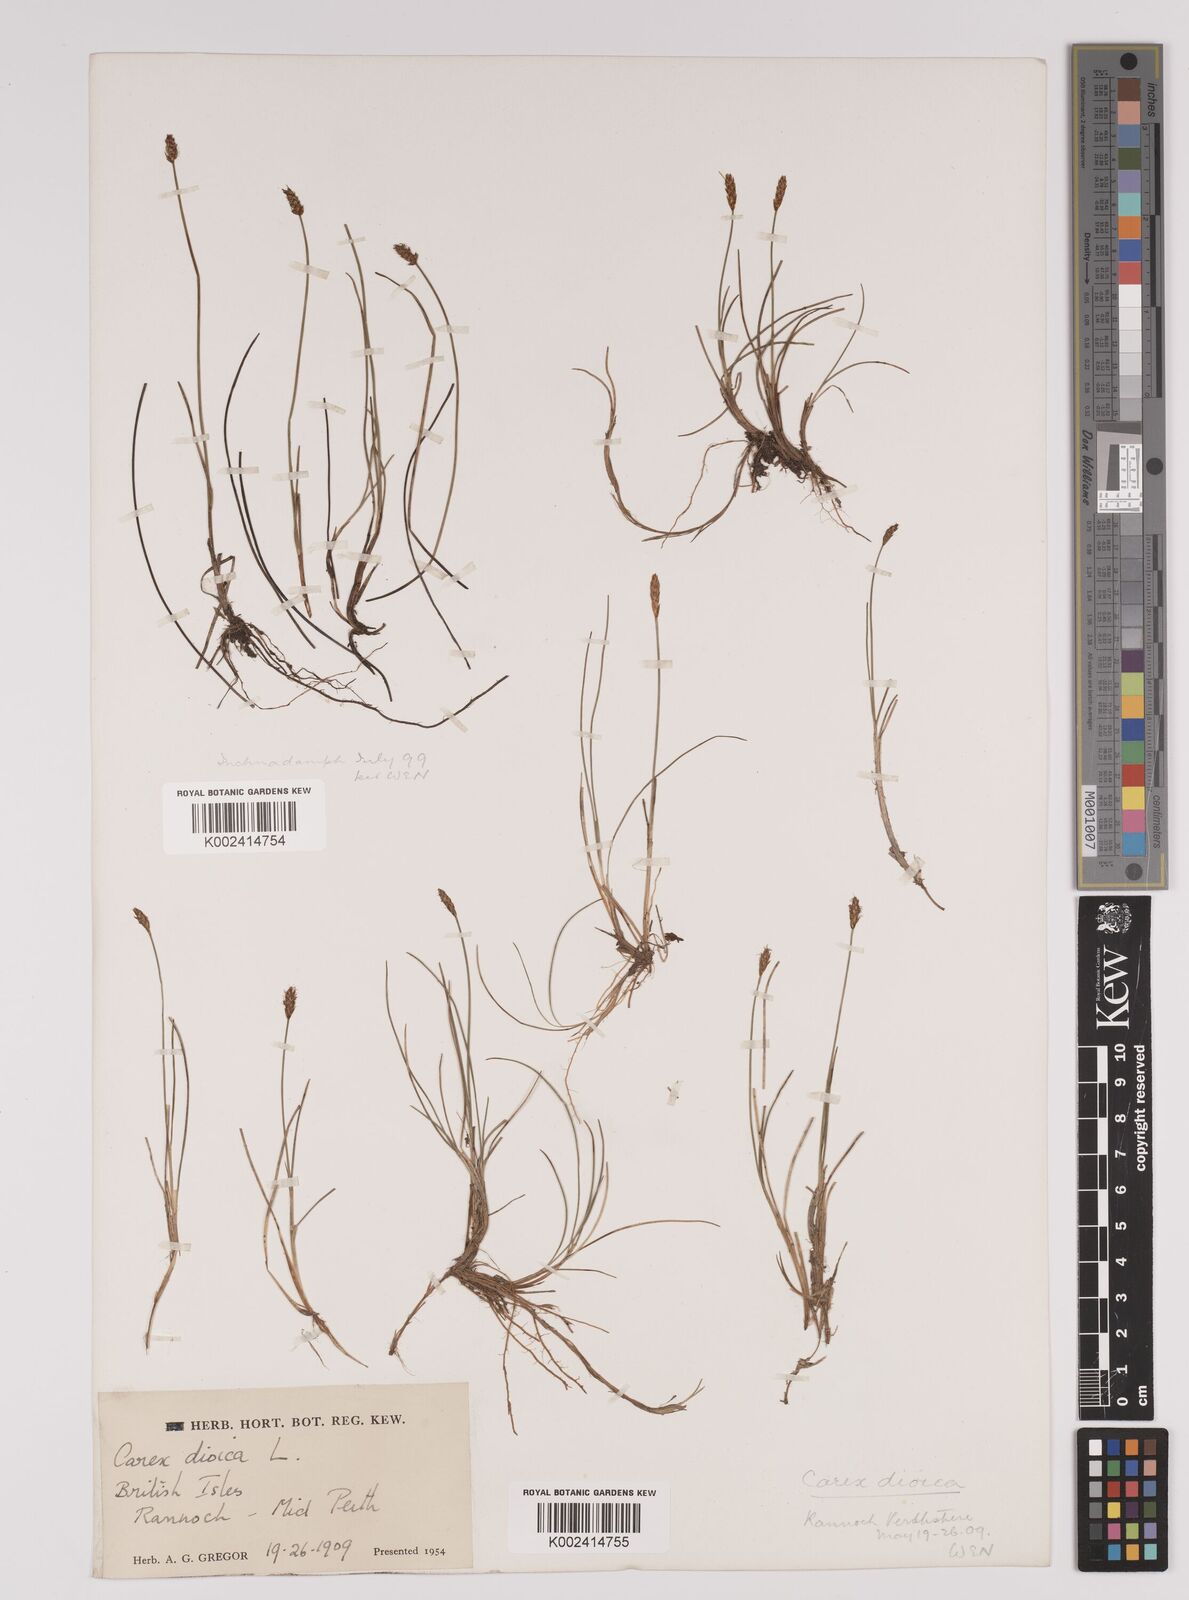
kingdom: Plantae
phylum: Tracheophyta
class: Liliopsida
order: Poales
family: Cyperaceae
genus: Carex
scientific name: Carex dioica
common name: Dioecious sedge
